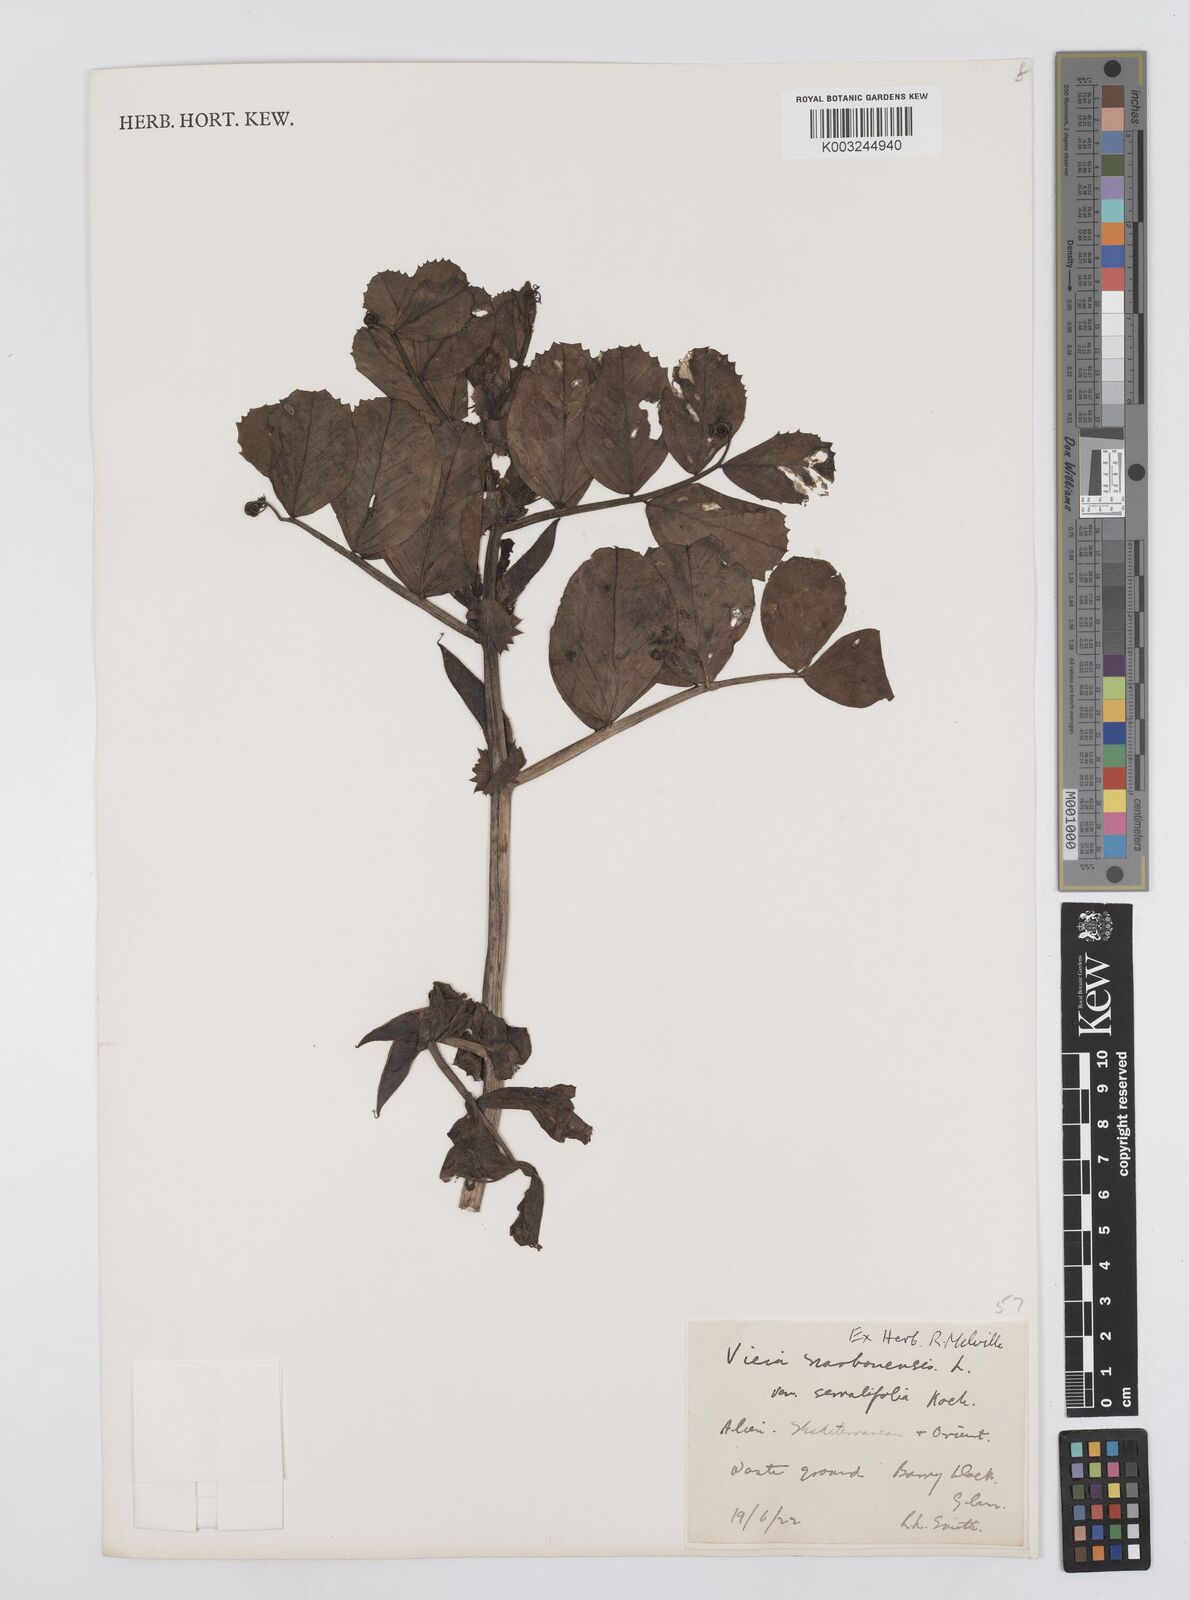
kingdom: Plantae
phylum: Tracheophyta
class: Magnoliopsida
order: Fabales
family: Fabaceae
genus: Vicia
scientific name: Vicia serratifolia
